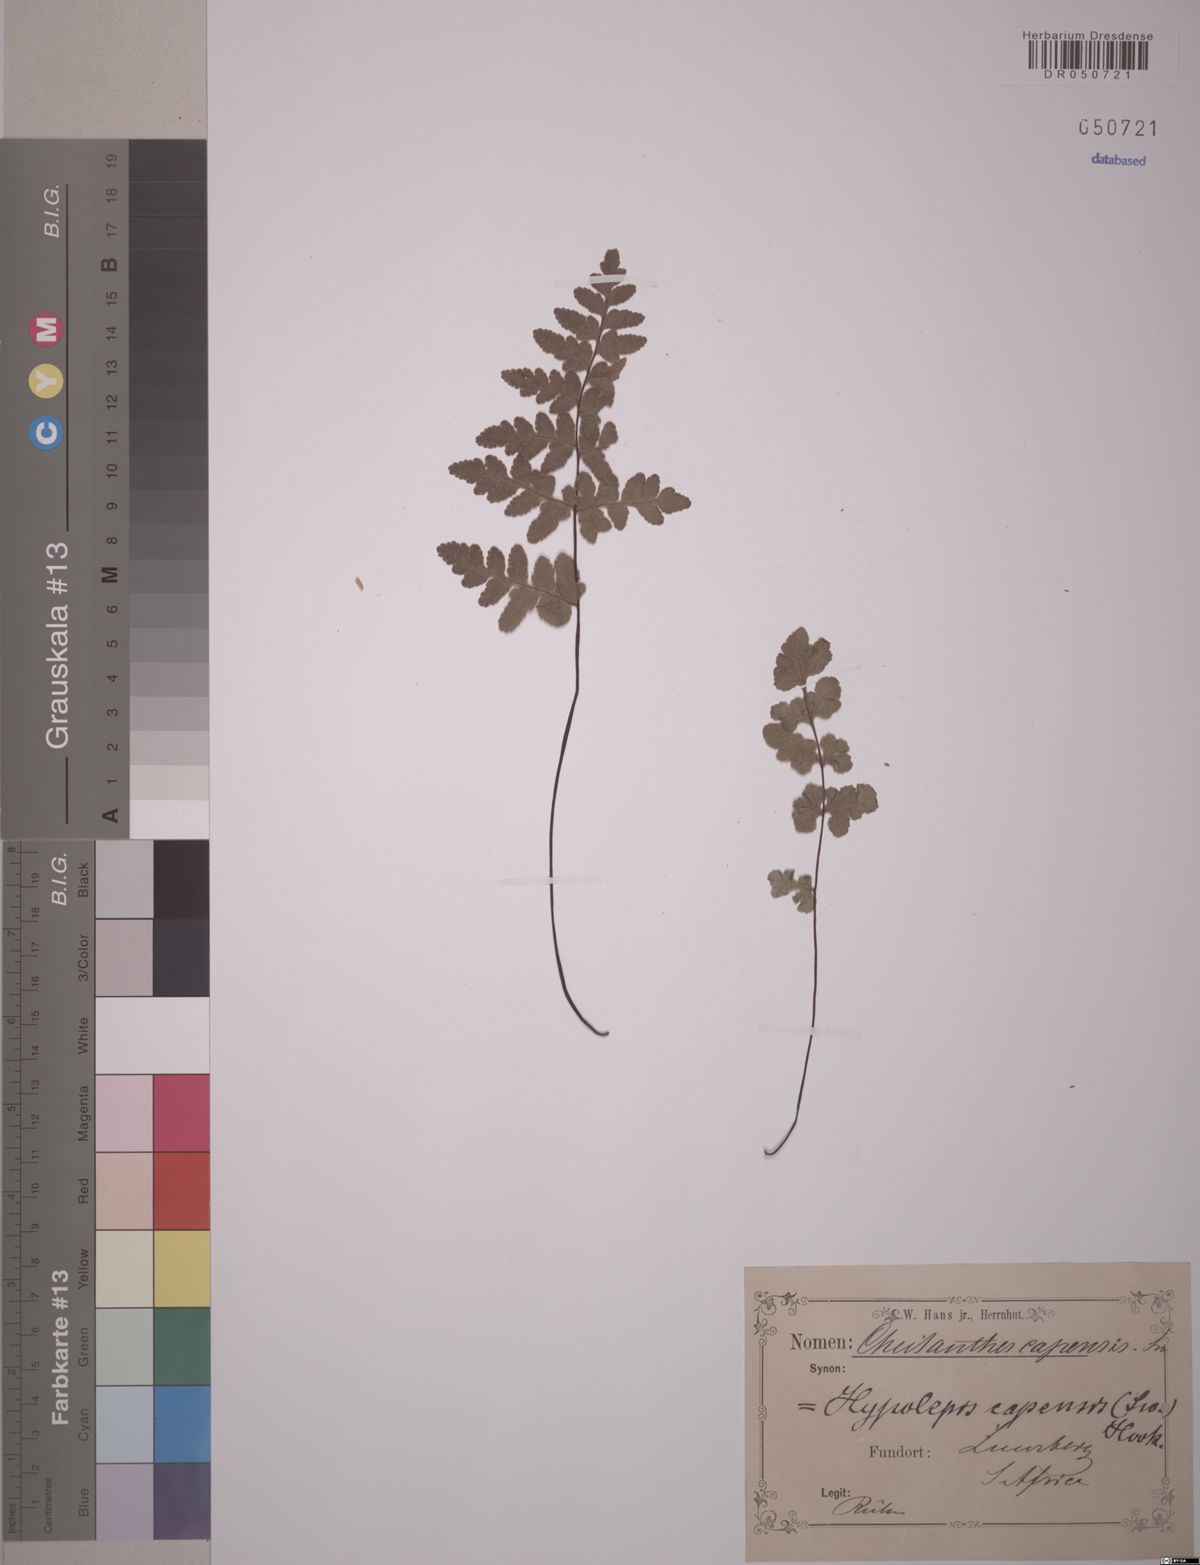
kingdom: Plantae
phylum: Tracheophyta
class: Polypodiopsida
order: Polypodiales
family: Pteridaceae
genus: Cheilanthes
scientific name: Cheilanthes capensis
